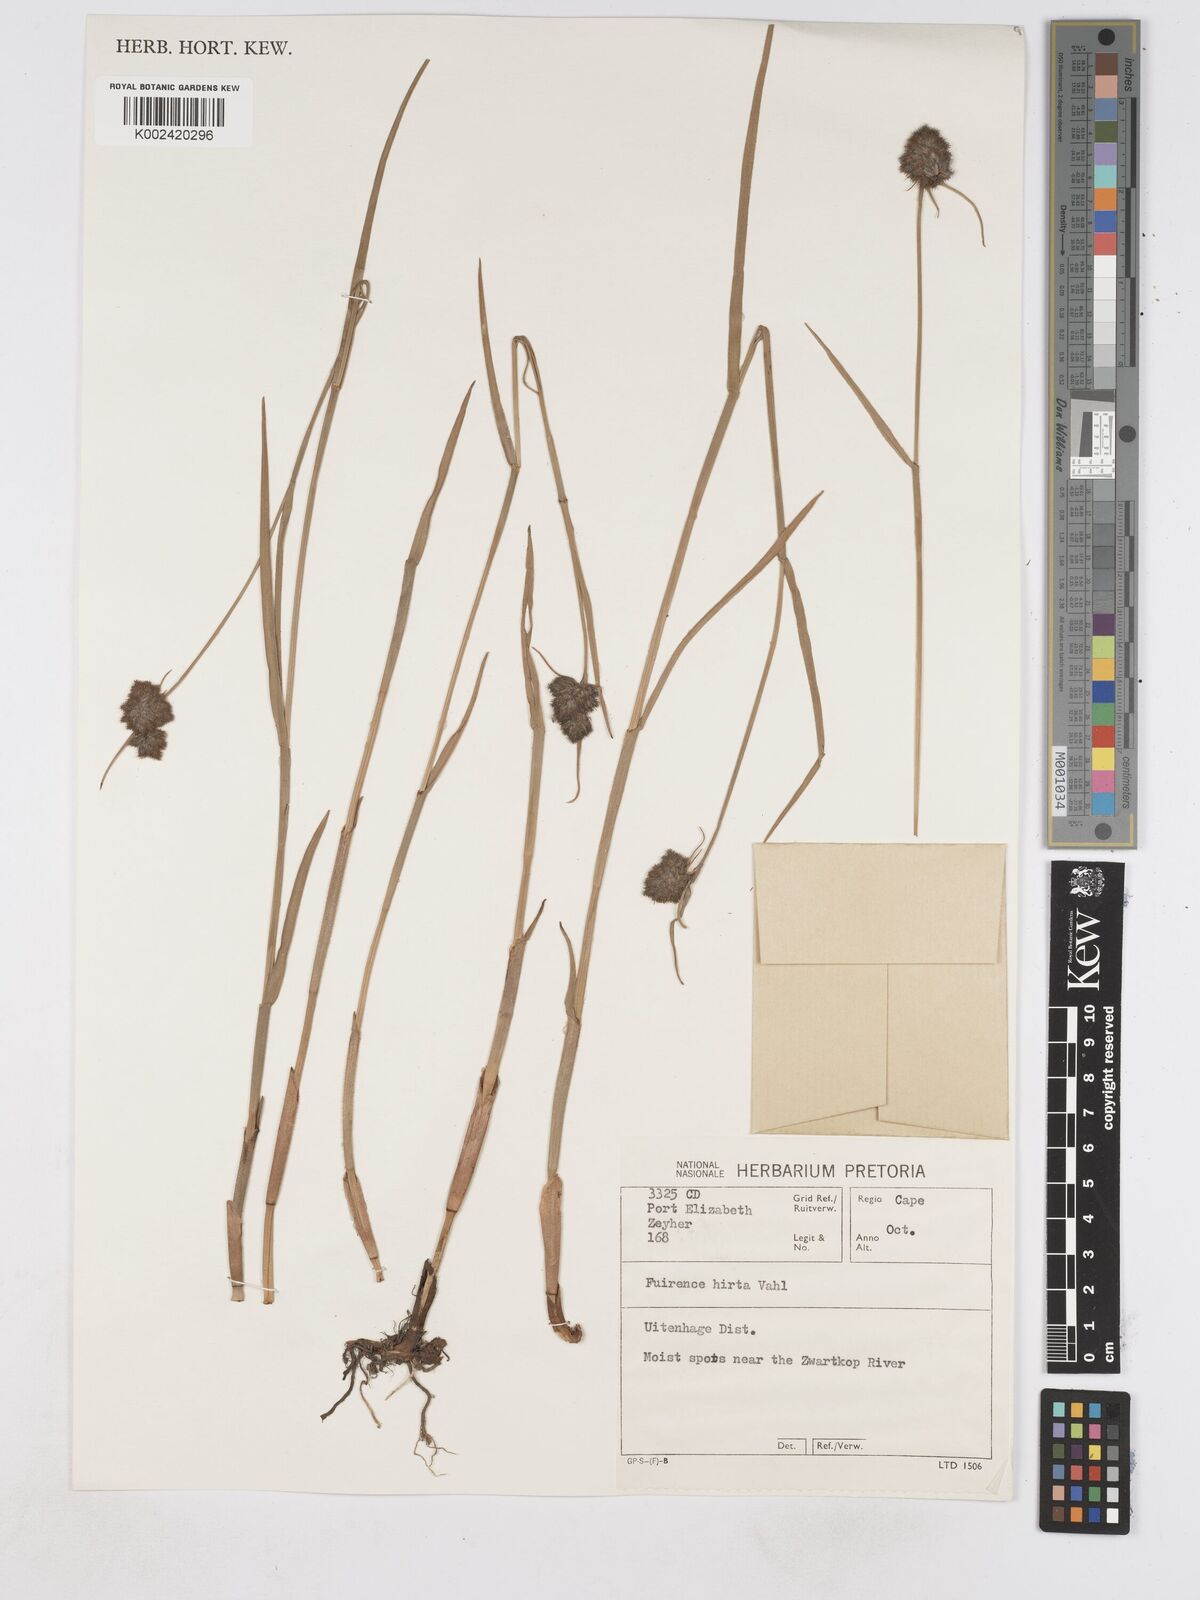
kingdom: Plantae
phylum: Tracheophyta
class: Liliopsida
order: Poales
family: Cyperaceae
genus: Fuirena
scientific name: Fuirena hirsuta
